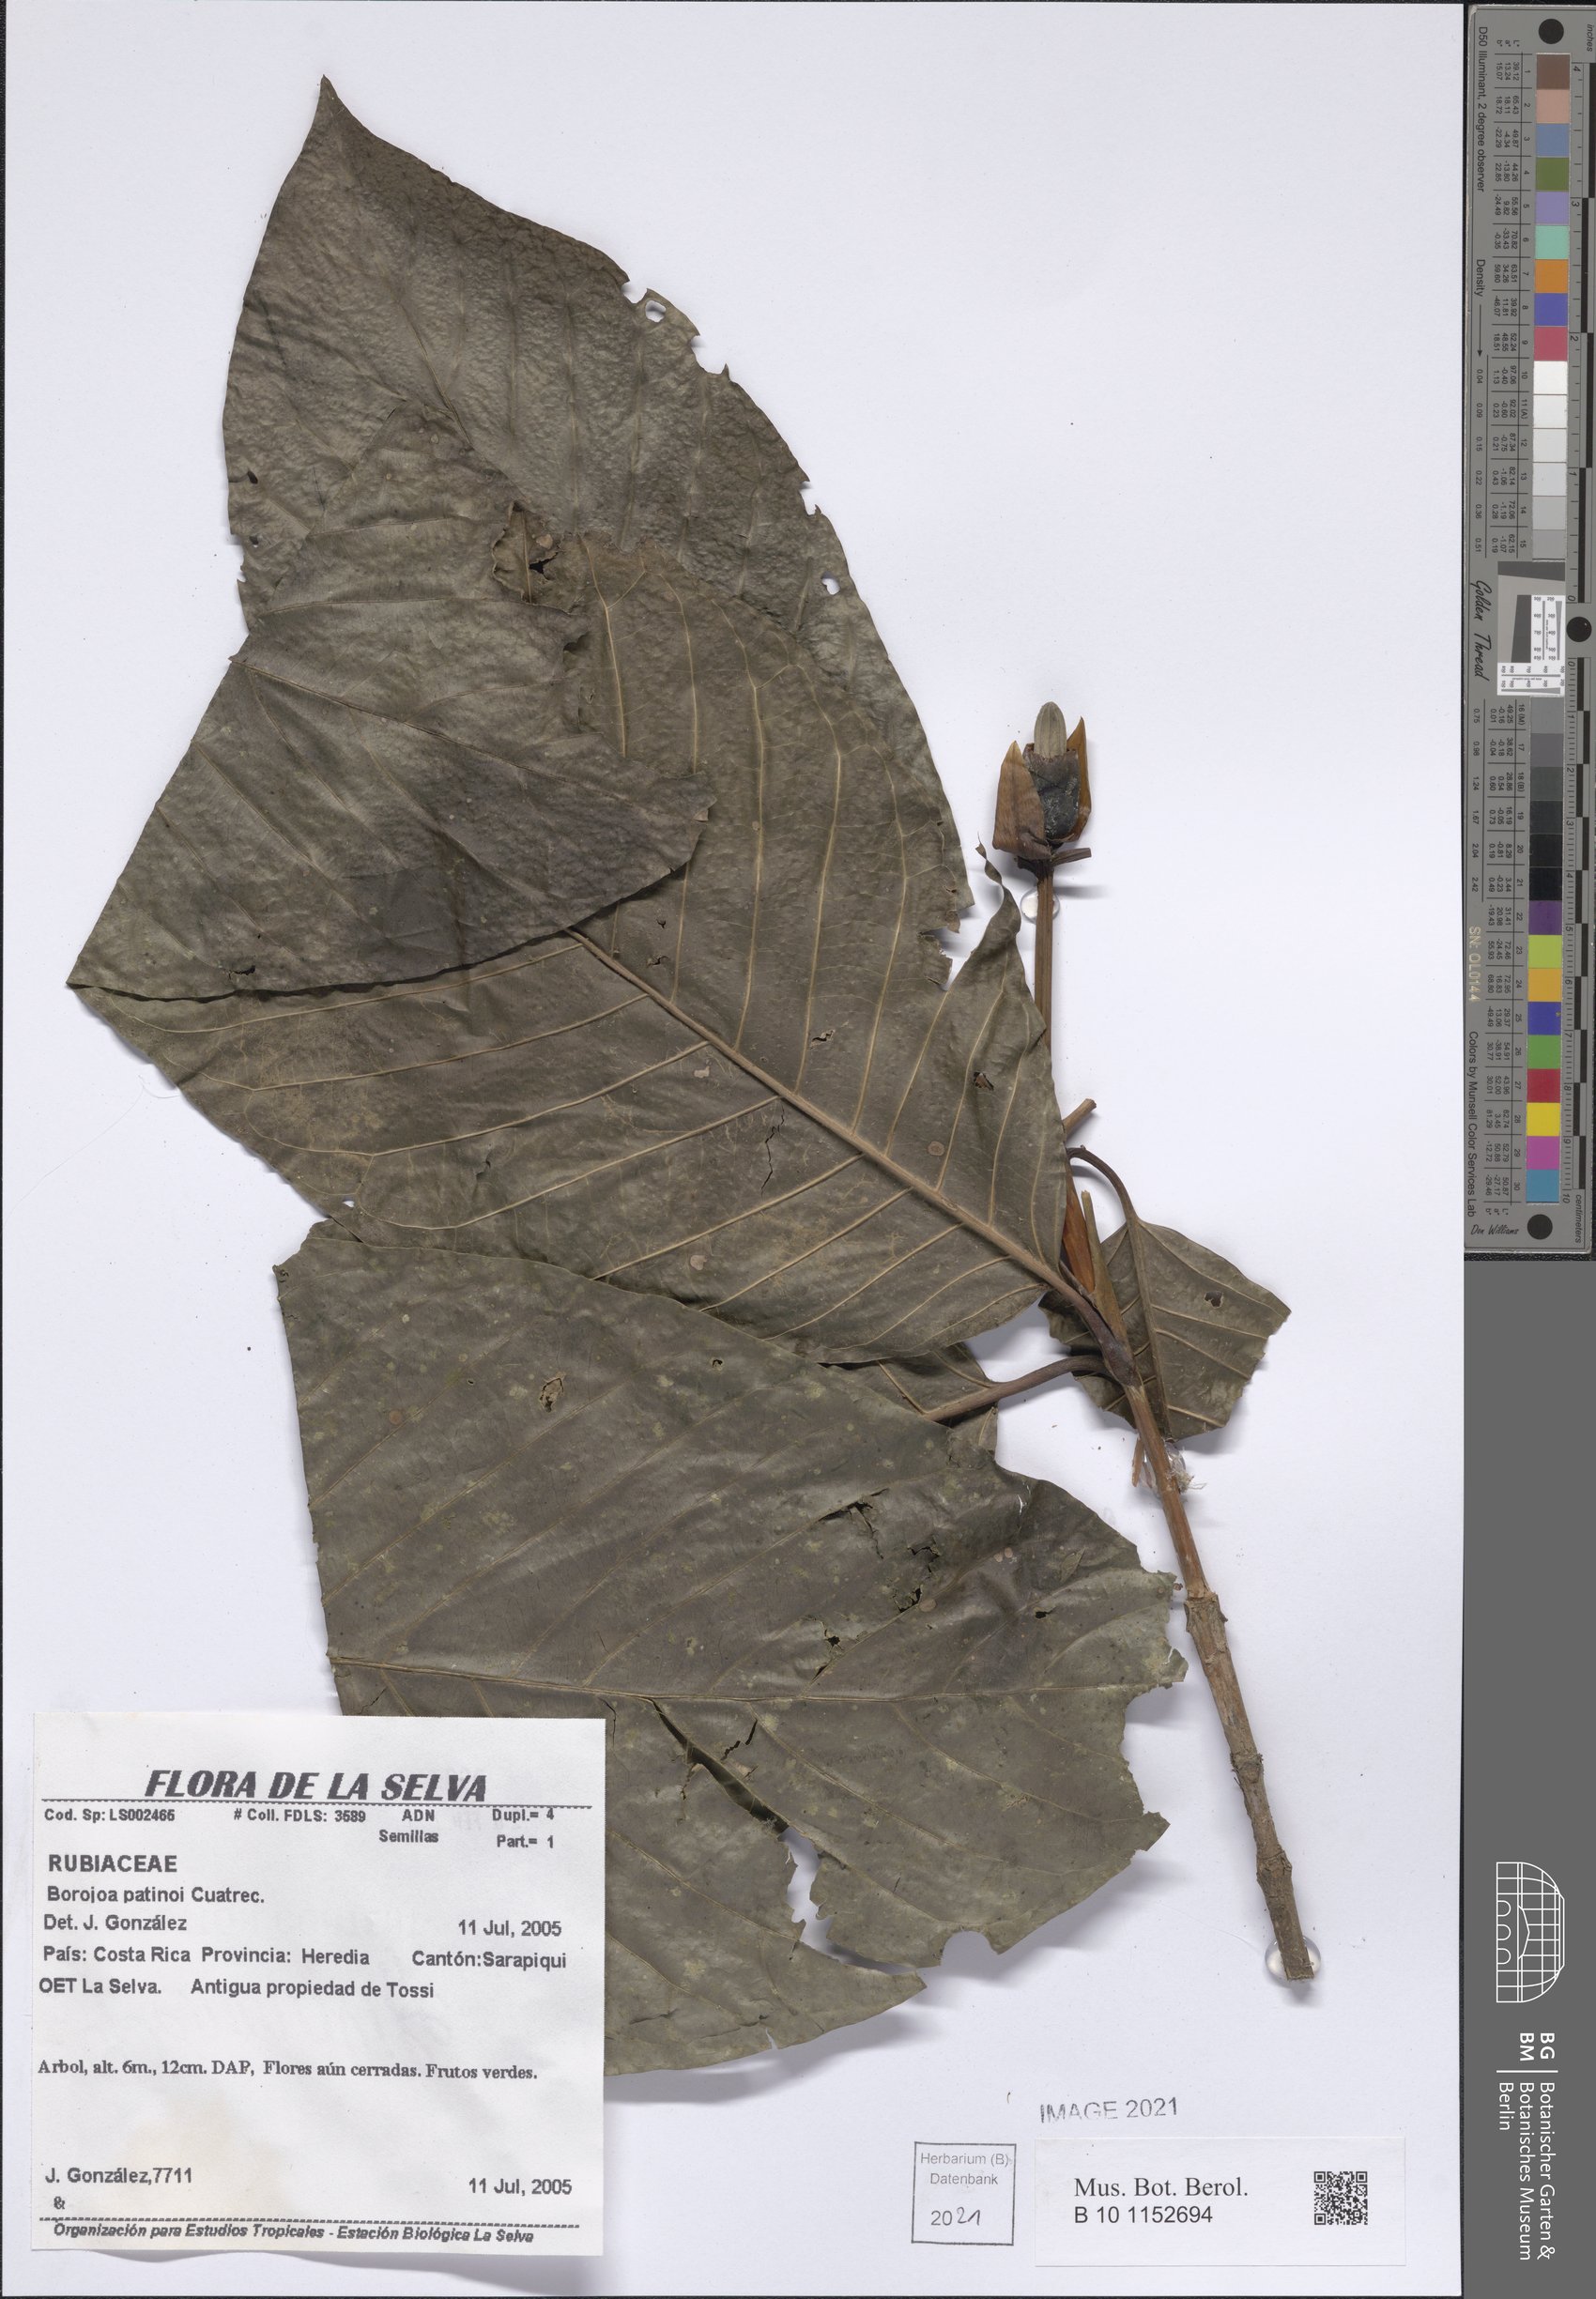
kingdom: Plantae
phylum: Tracheophyta
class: Magnoliopsida
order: Gentianales
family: Rubiaceae
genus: Alibertia
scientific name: Alibertia patinoi
